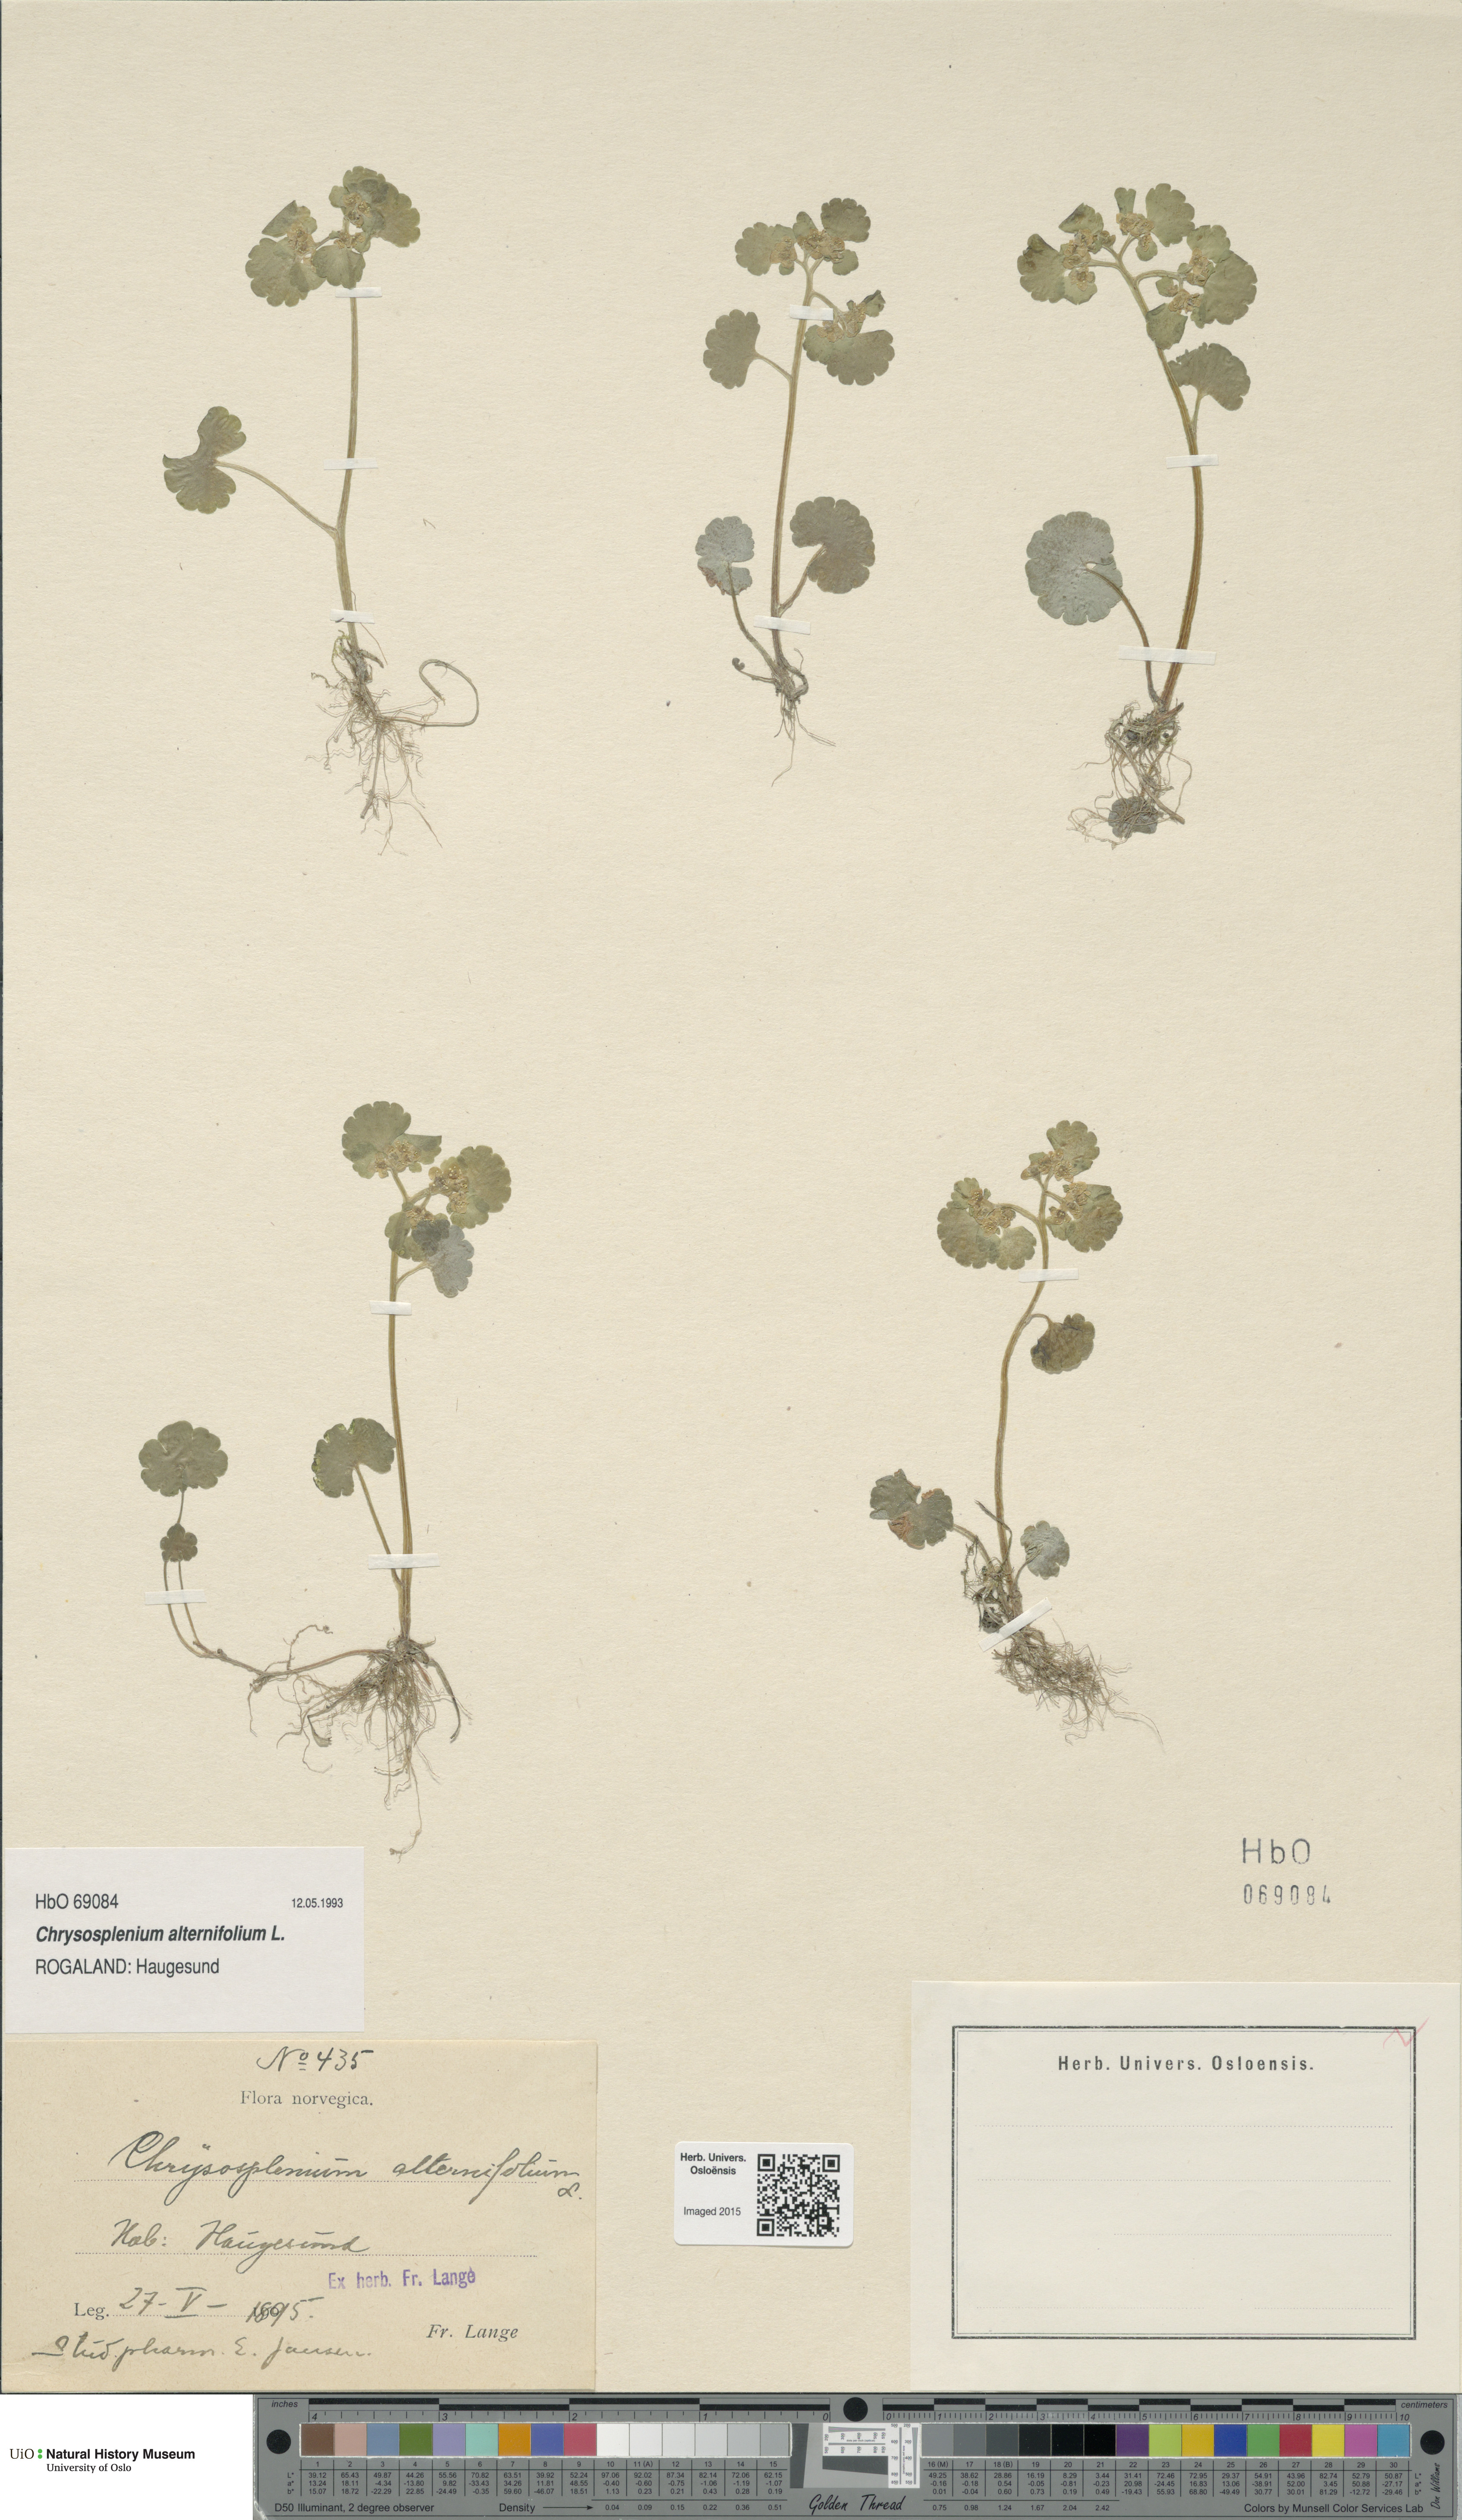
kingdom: Plantae
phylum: Tracheophyta
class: Magnoliopsida
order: Saxifragales
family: Saxifragaceae
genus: Chrysosplenium
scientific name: Chrysosplenium alternifolium
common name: Alternate-leaved golden-saxifrage
